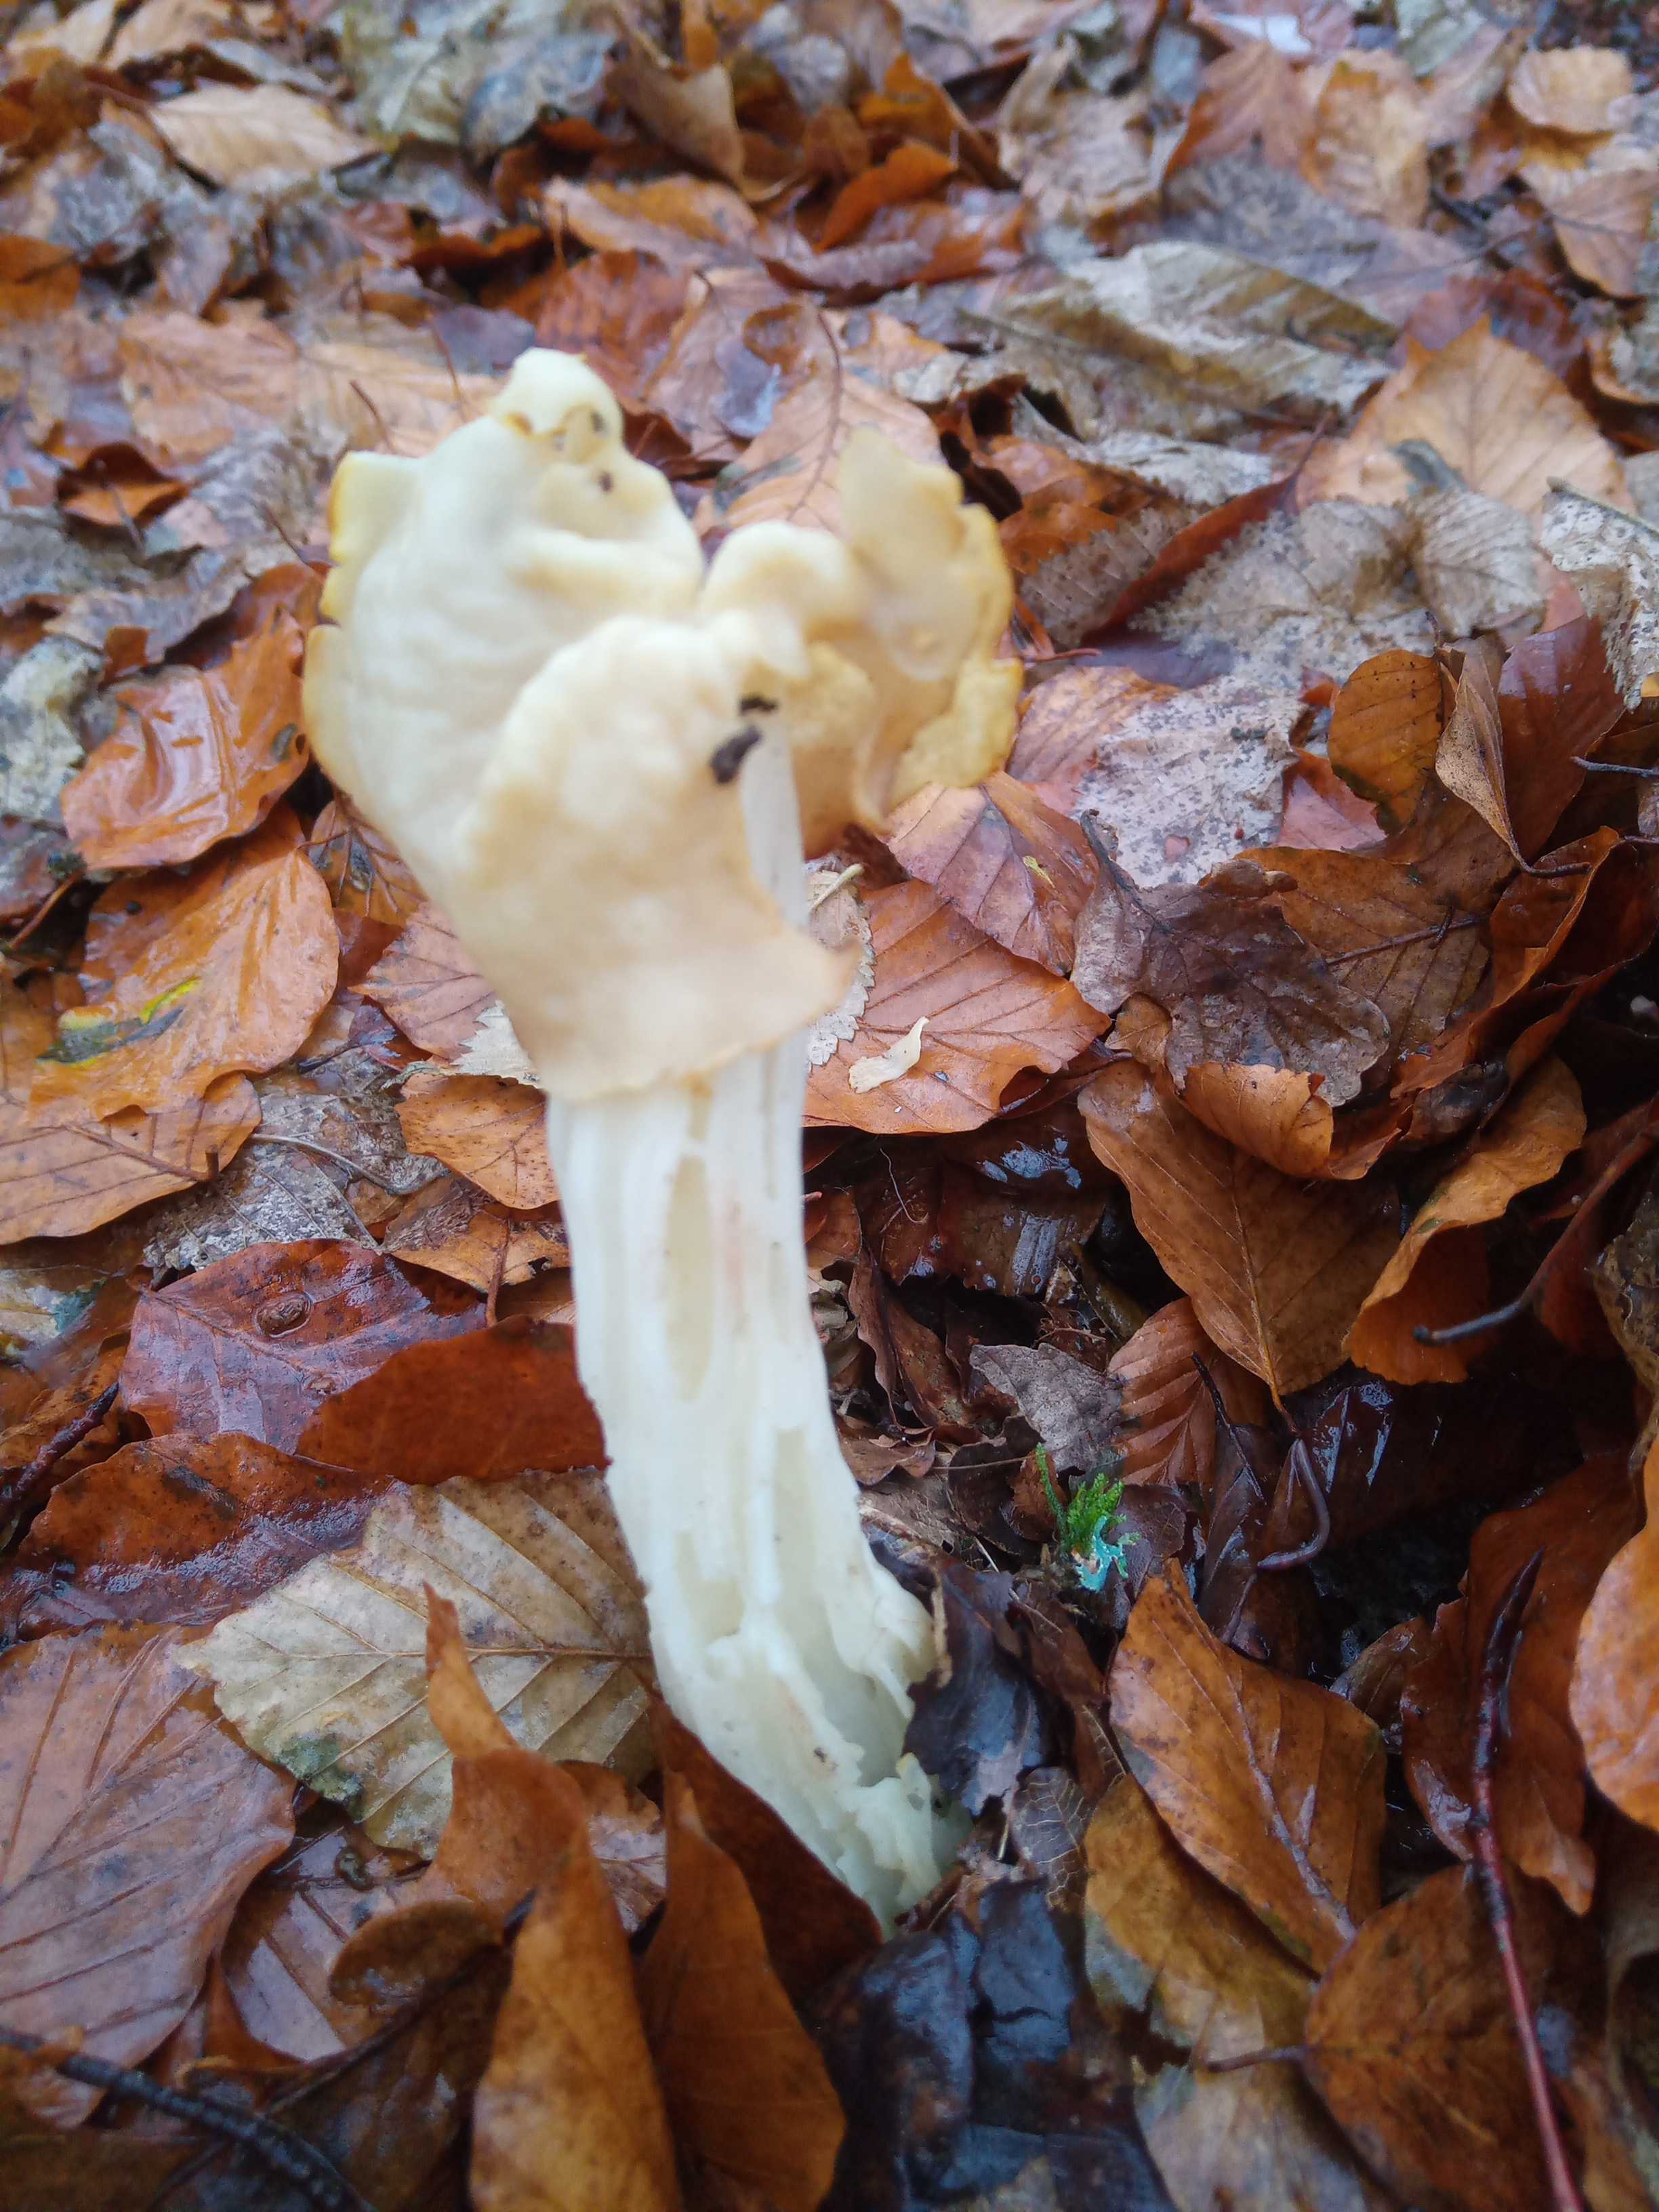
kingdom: Fungi
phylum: Ascomycota
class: Pezizomycetes
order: Pezizales
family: Helvellaceae
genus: Helvella
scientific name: Helvella crispa
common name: kruset foldhat
